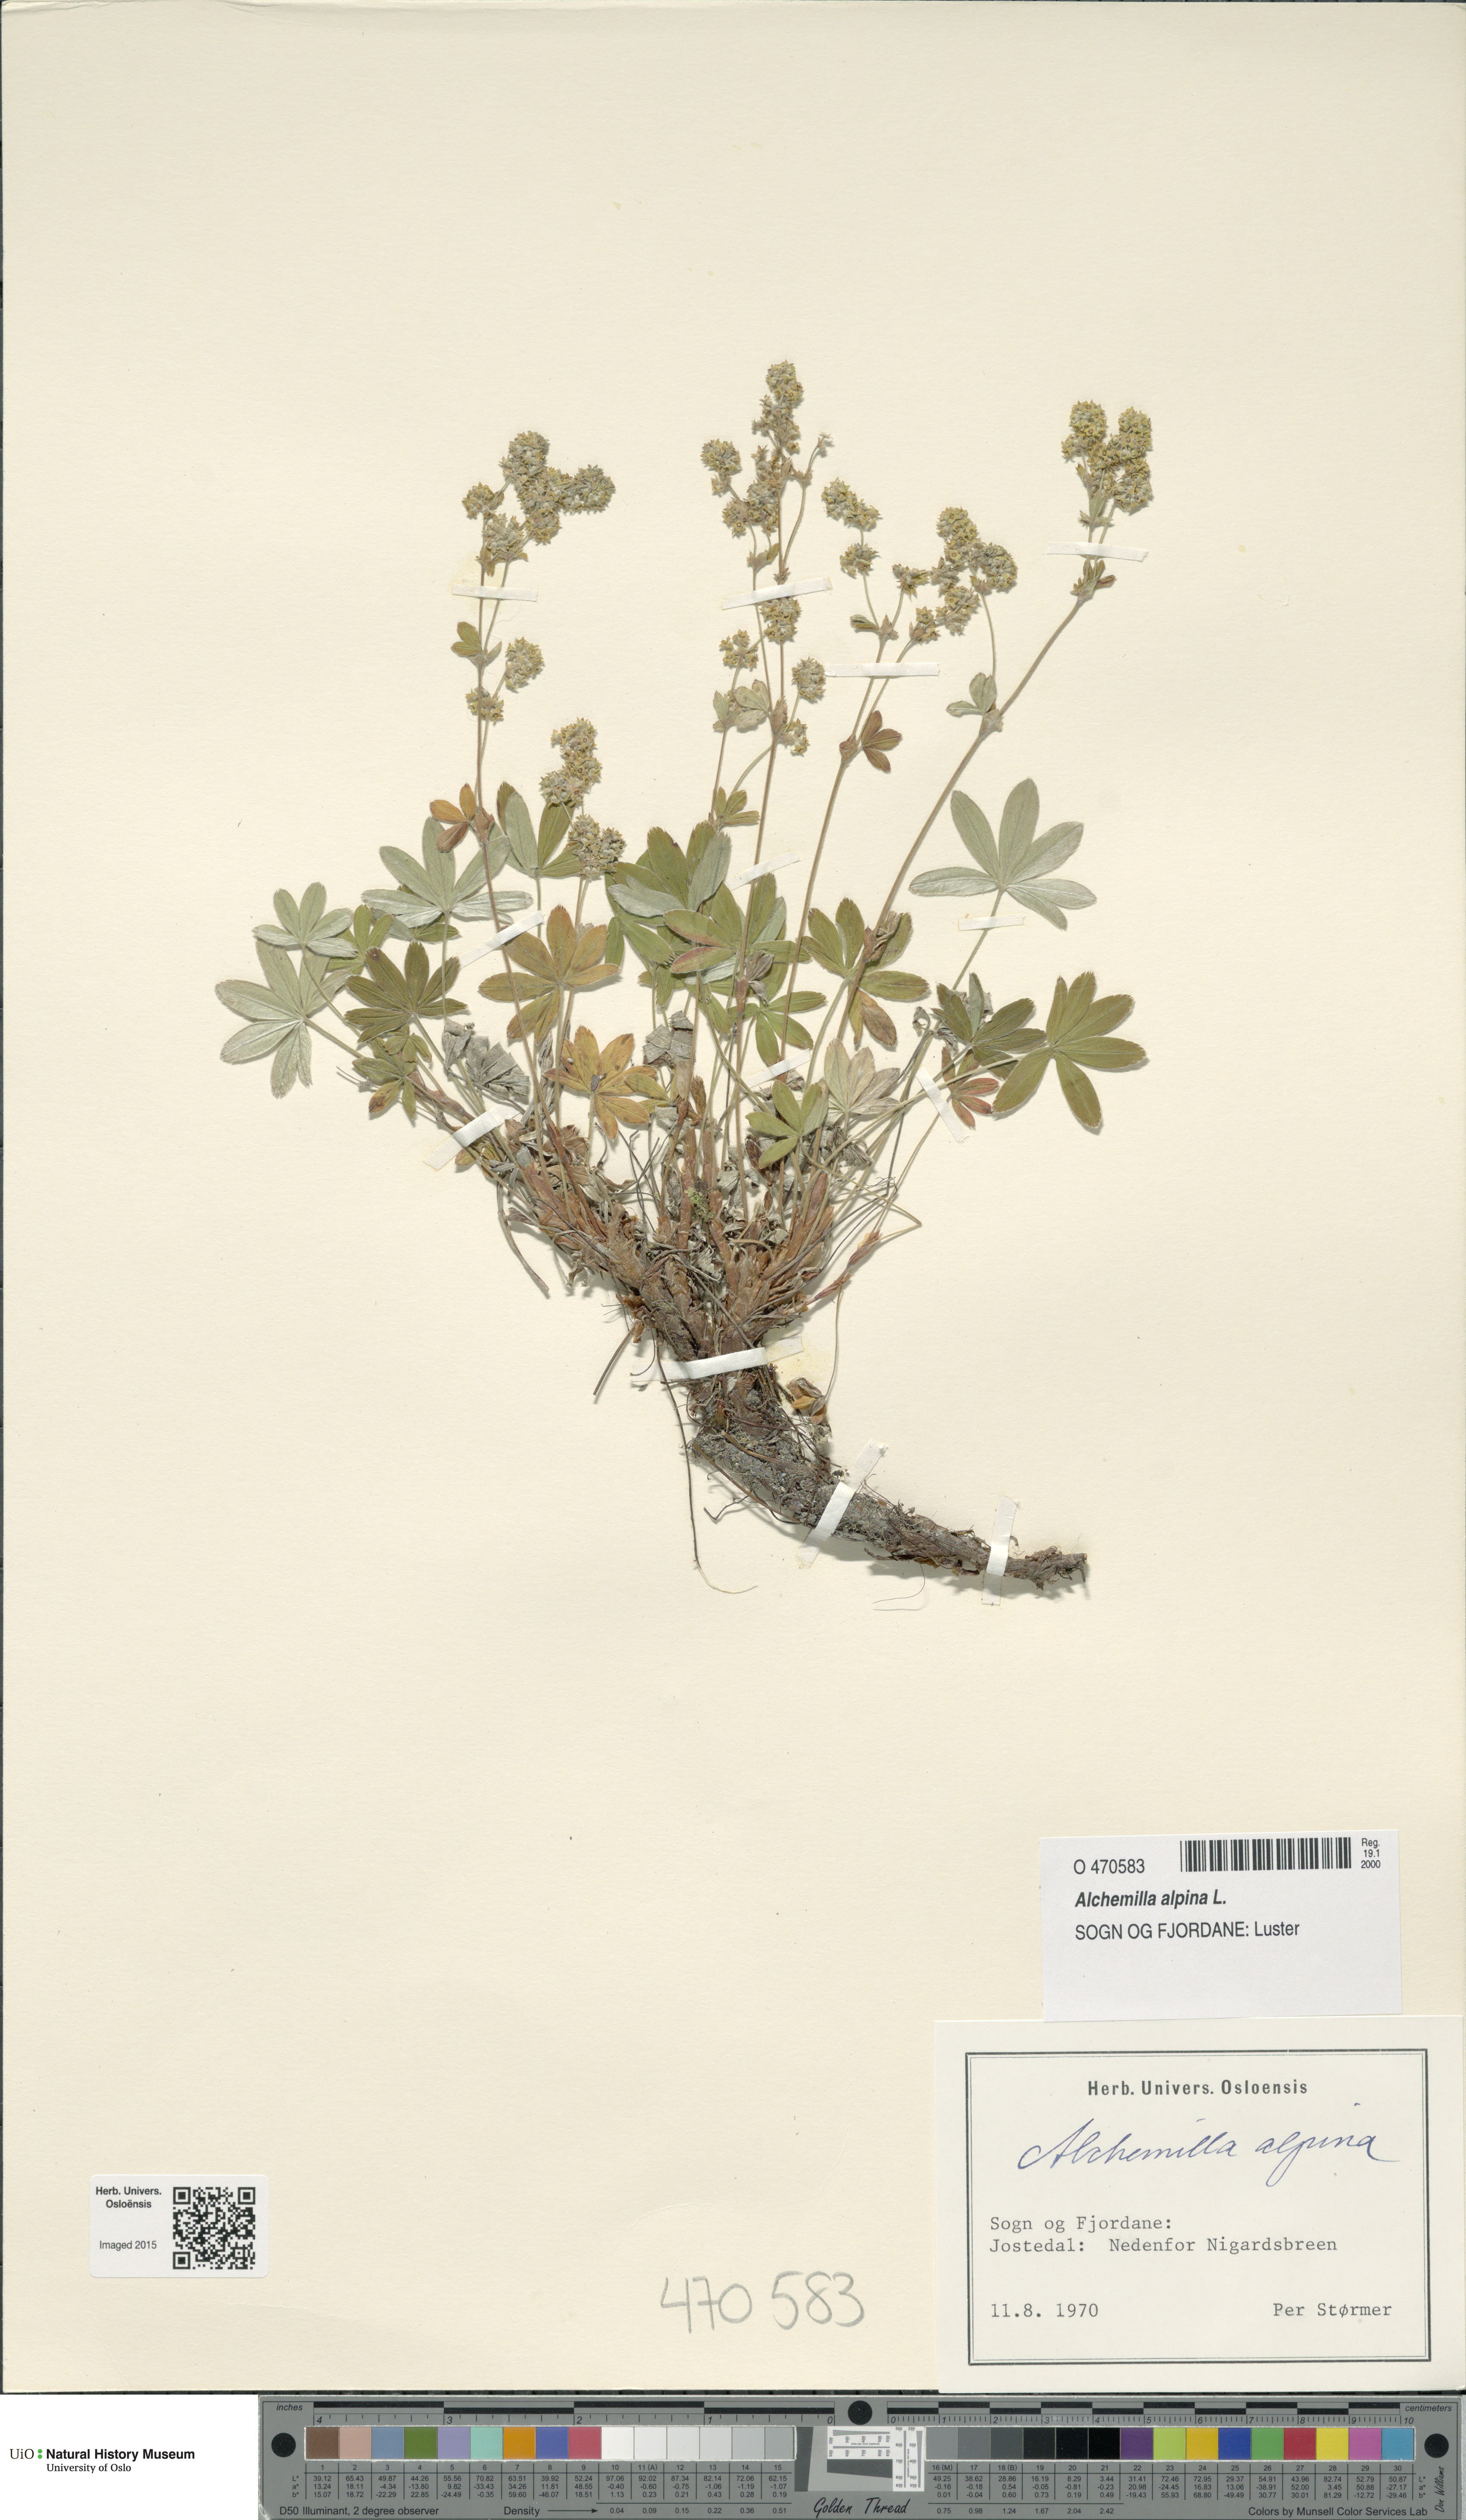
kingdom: Plantae
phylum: Tracheophyta
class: Magnoliopsida
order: Rosales
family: Rosaceae
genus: Alchemilla
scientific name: Alchemilla alpina
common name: Alpine lady's-mantle
